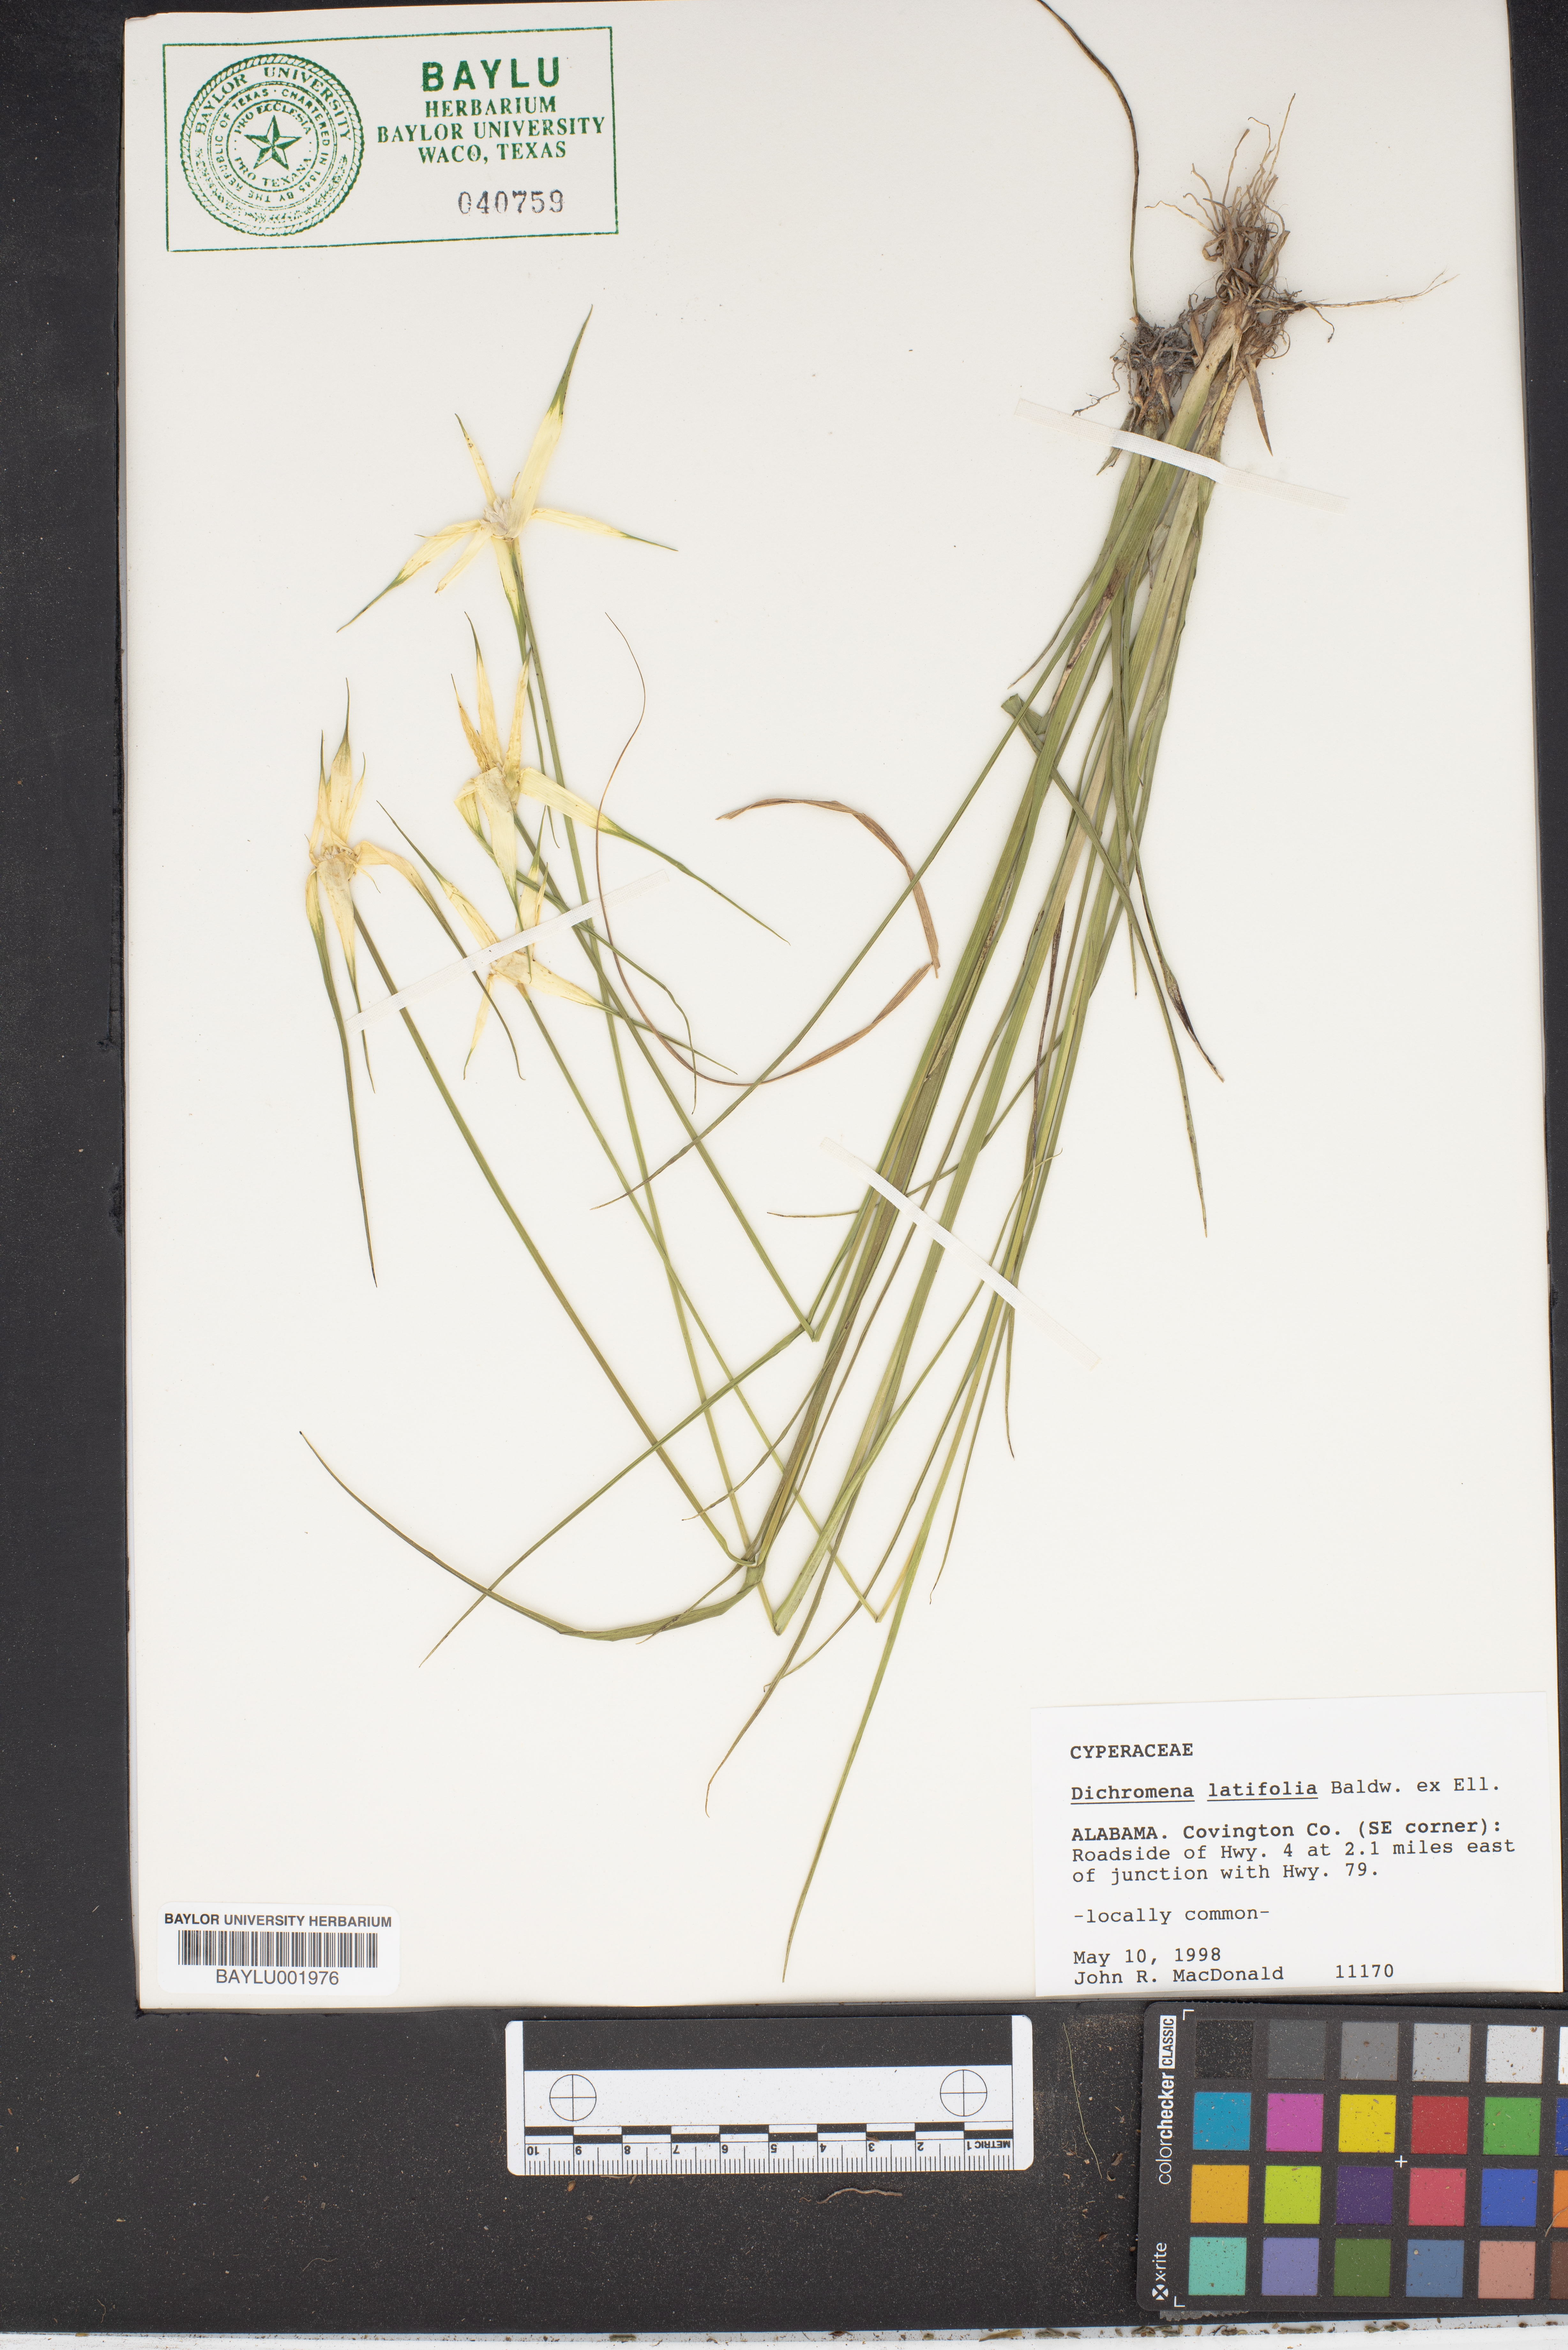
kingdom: Plantae
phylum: Tracheophyta
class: Liliopsida
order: Poales
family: Cyperaceae
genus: Rhynchospora
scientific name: Rhynchospora latifolia
